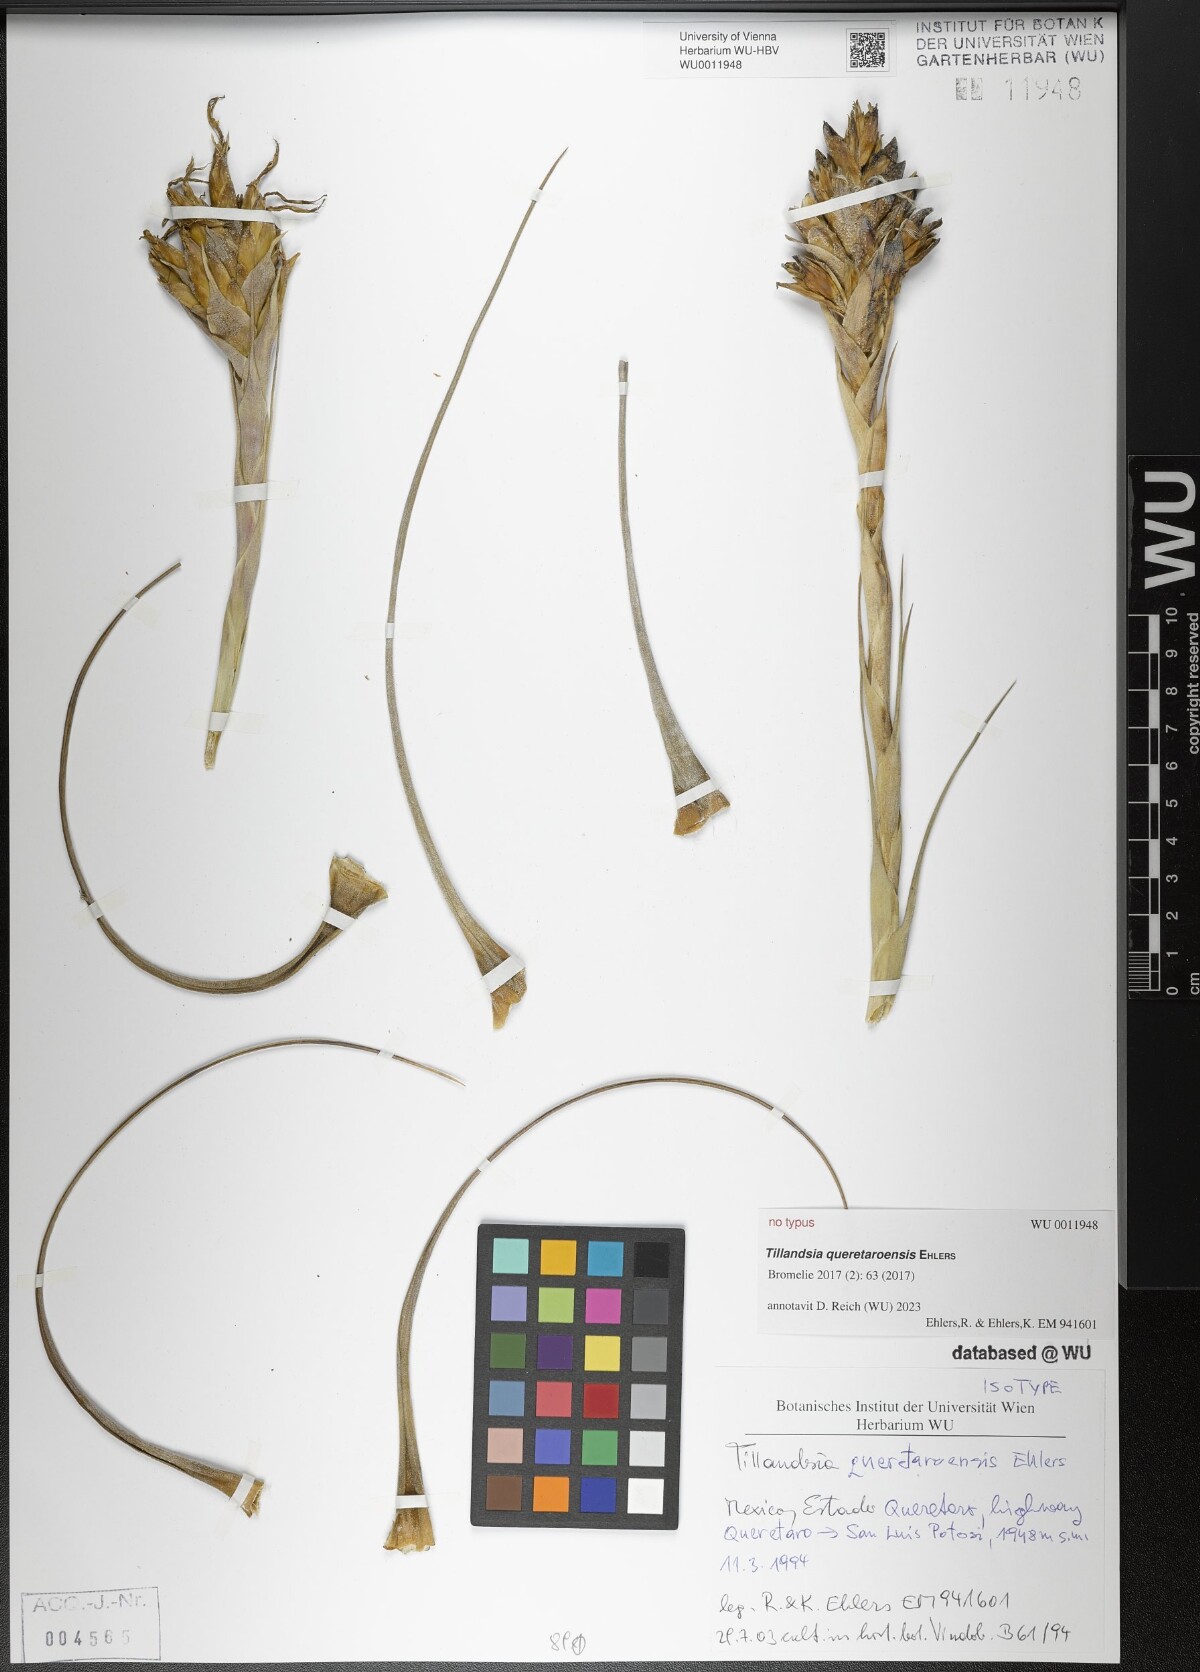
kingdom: Plantae
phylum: Tracheophyta
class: Liliopsida
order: Poales
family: Bromeliaceae
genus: Tillandsia
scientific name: Tillandsia queretaroensis
